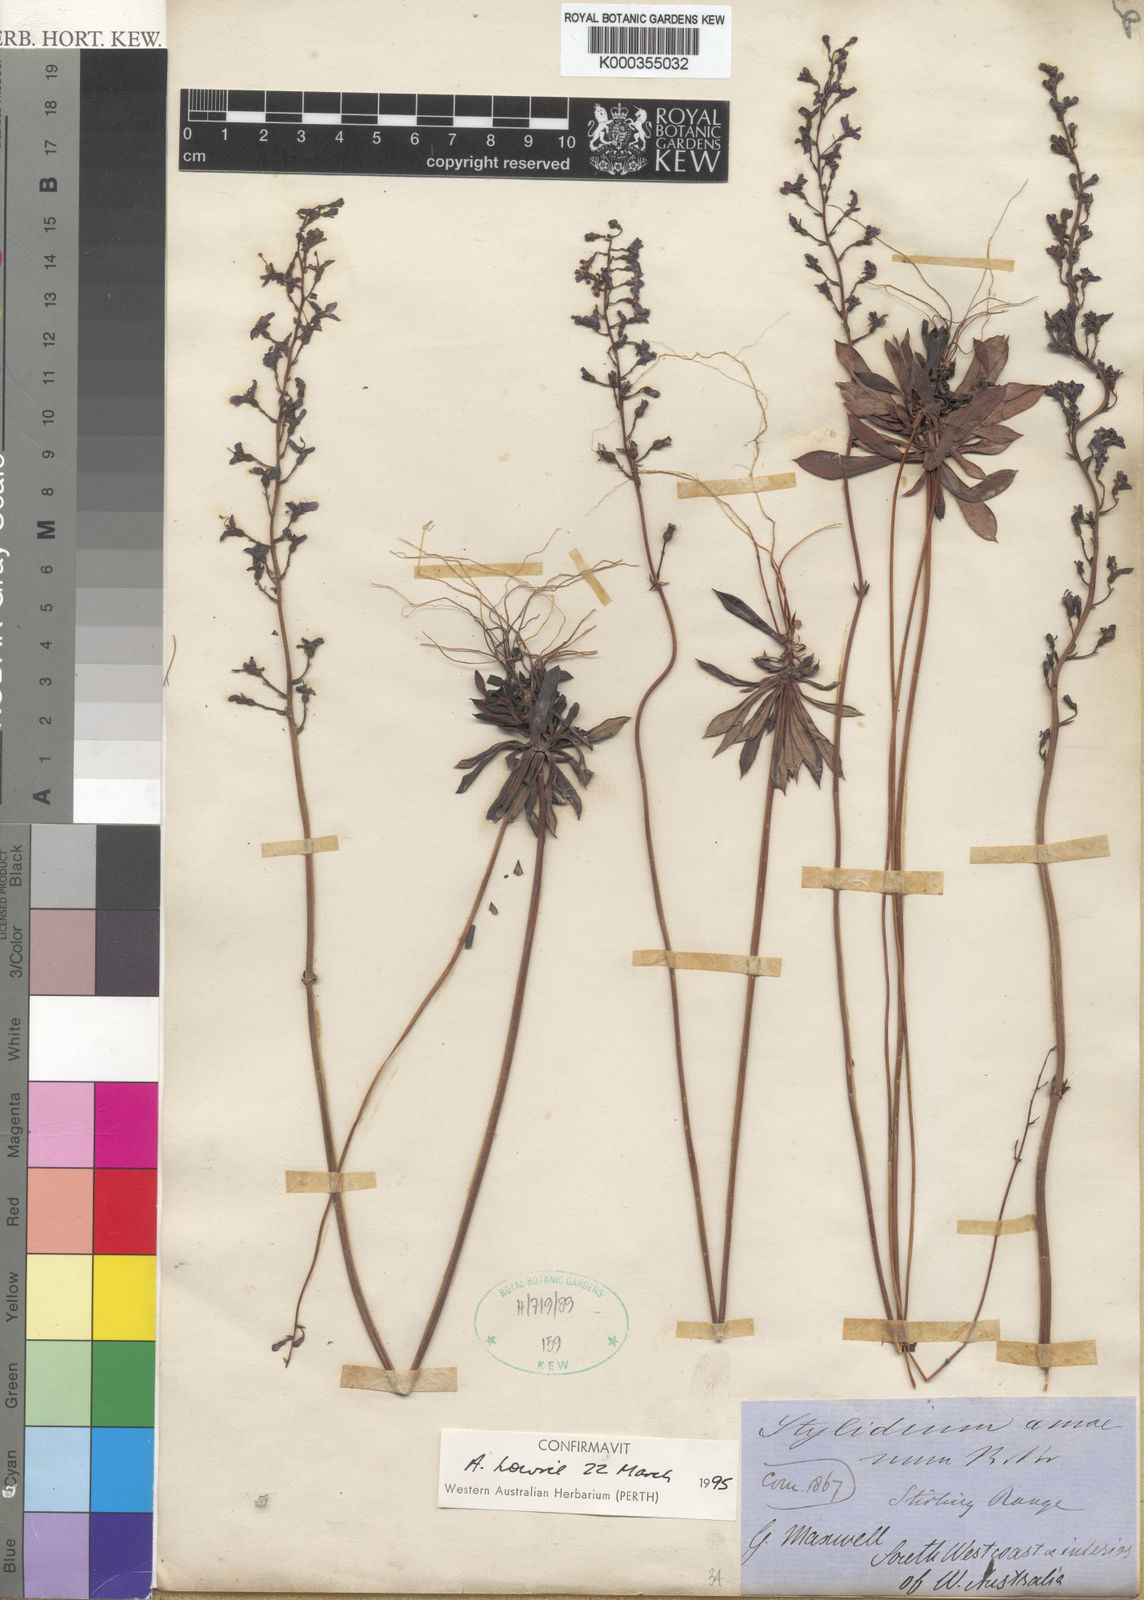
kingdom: Plantae
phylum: Tracheophyta
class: Magnoliopsida
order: Asterales
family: Stylidiaceae
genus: Stylidium
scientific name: Stylidium amoenum
